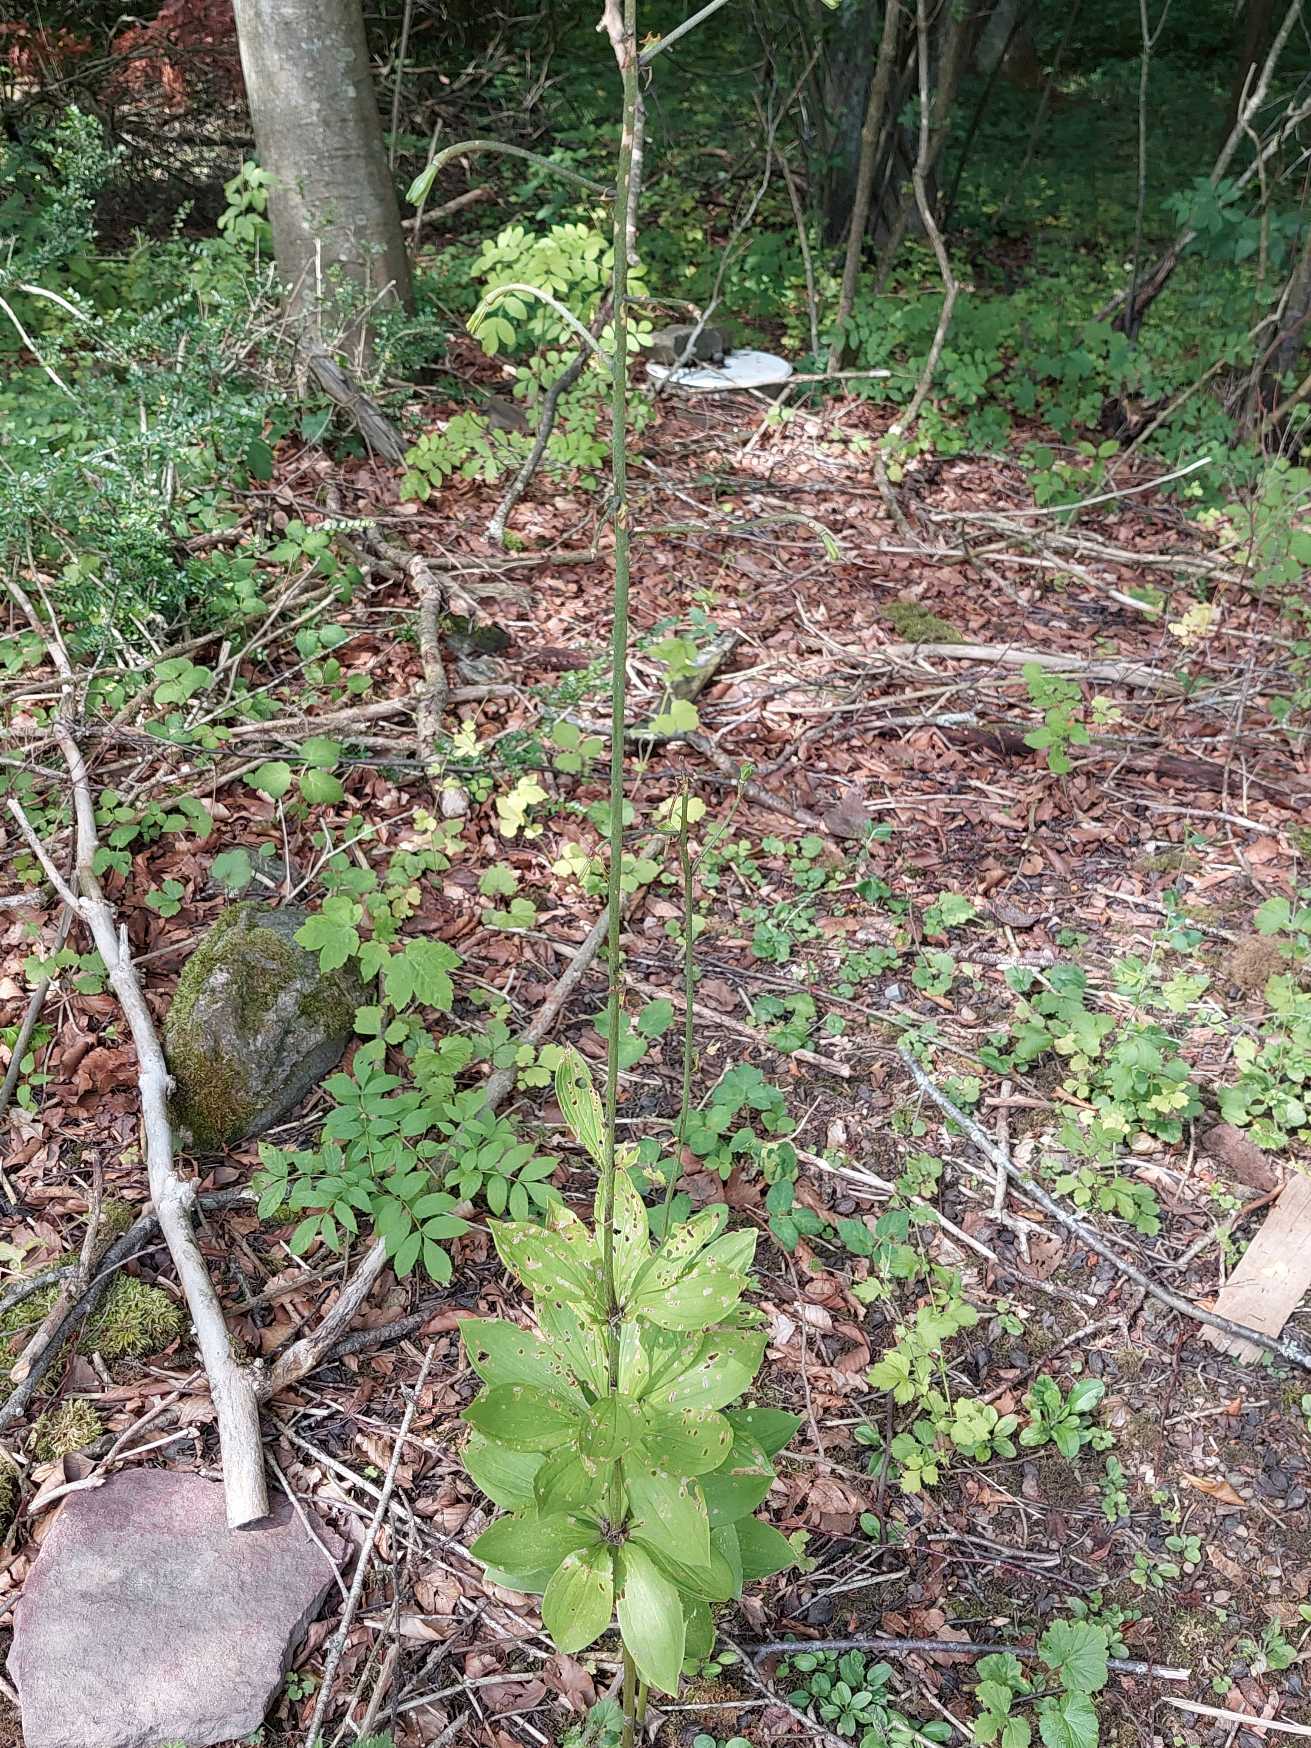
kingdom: Plantae
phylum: Tracheophyta
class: Liliopsida
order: Liliales
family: Liliaceae
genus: Lilium
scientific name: Lilium martagon
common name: Krans-lilje
